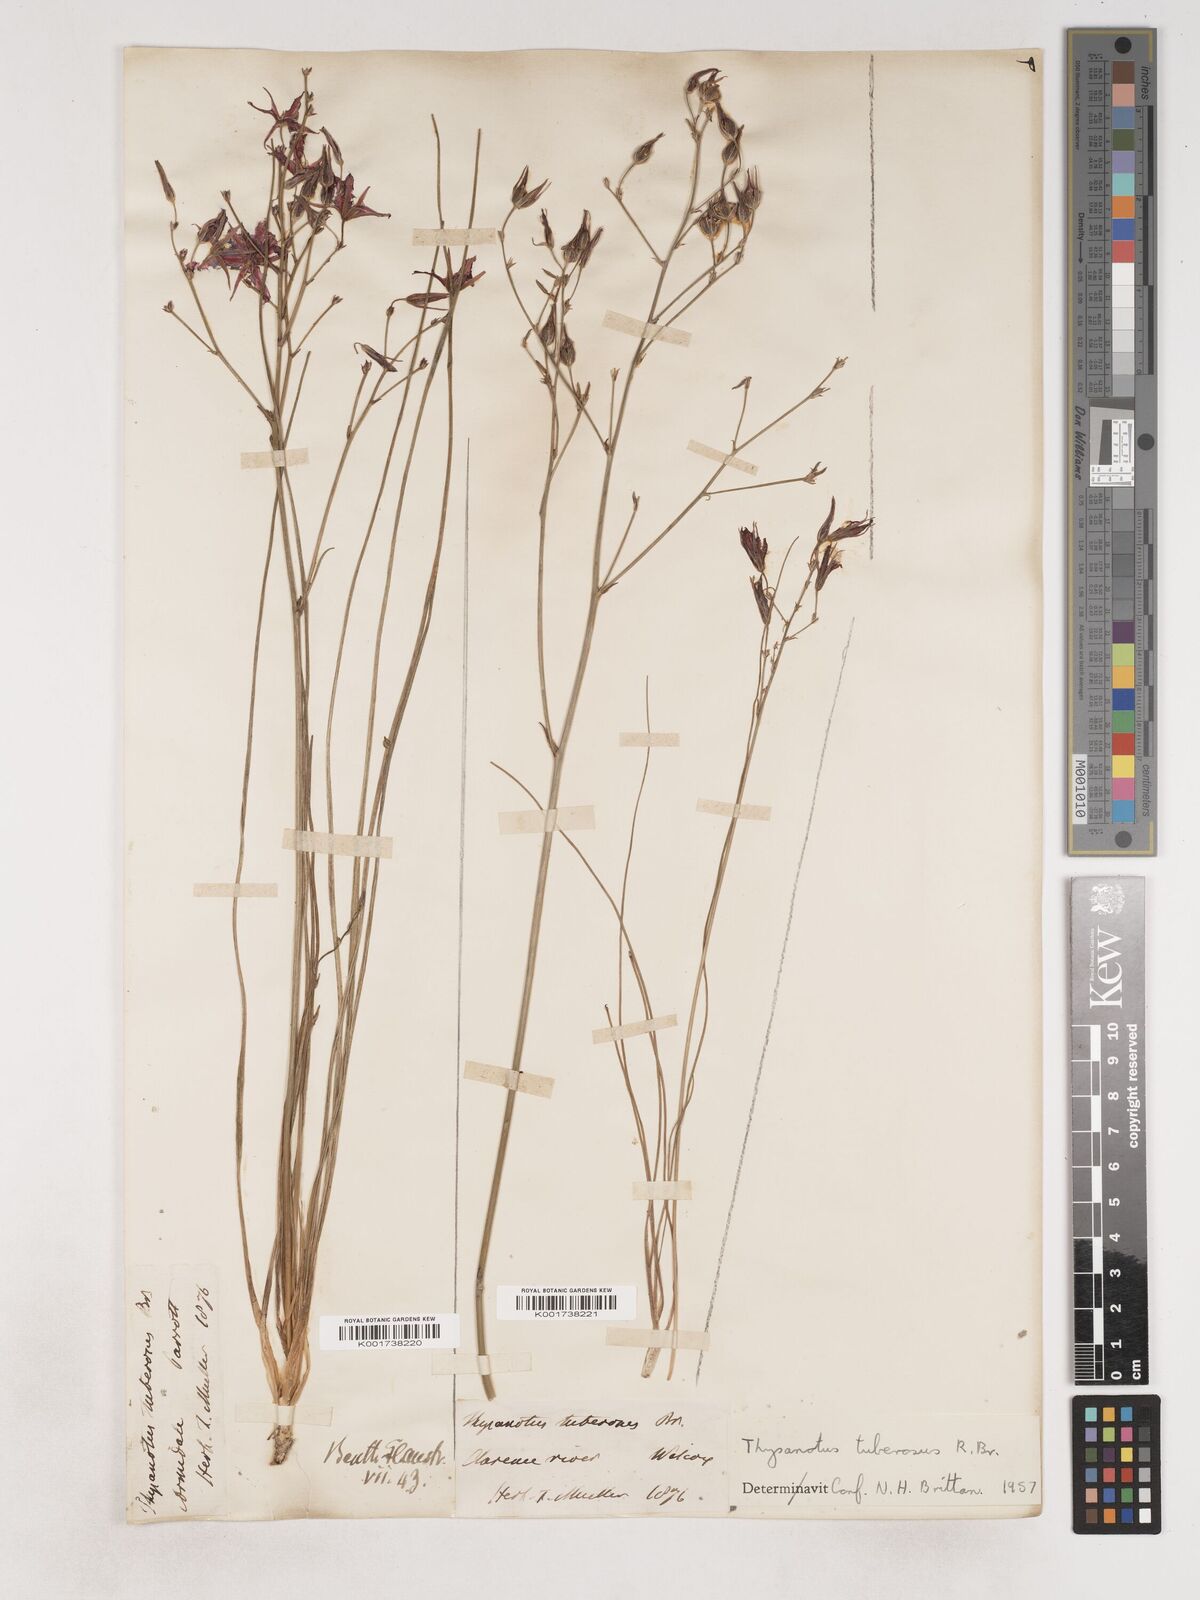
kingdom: Plantae
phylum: Tracheophyta
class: Liliopsida
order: Asparagales
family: Asparagaceae
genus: Thysanotus
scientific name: Thysanotus tuberosus
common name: Common fringed-lily
